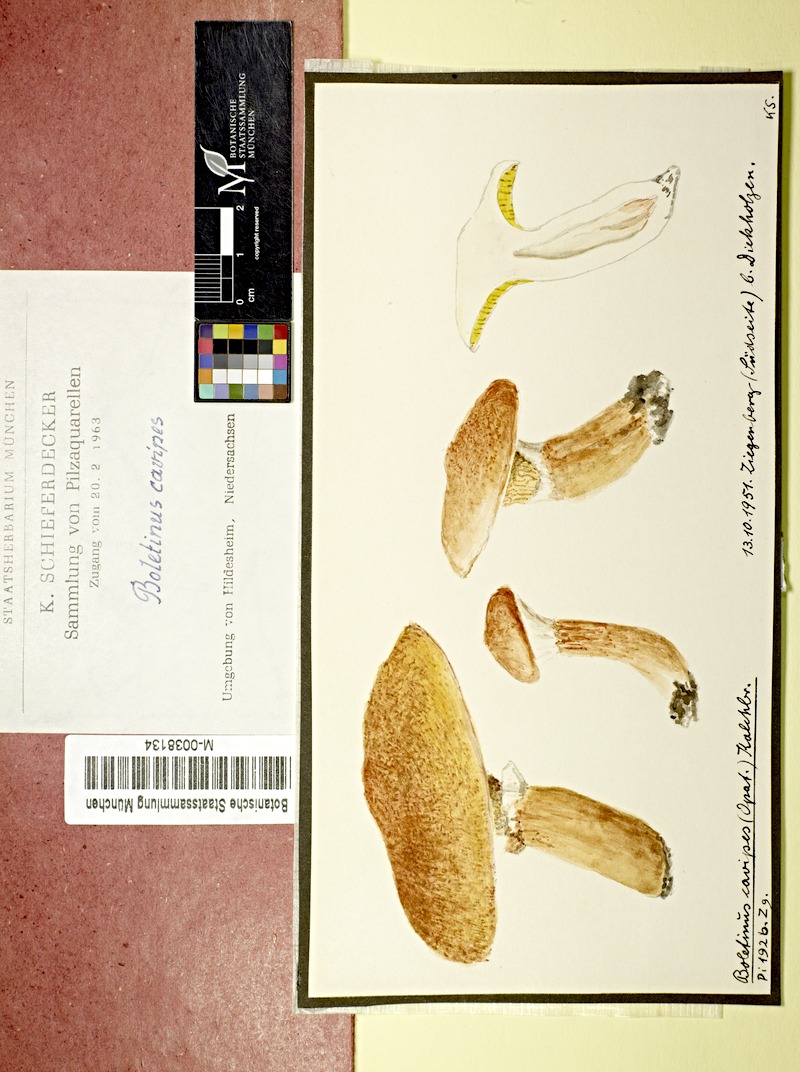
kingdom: Fungi
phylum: Basidiomycota
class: Agaricomycetes
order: Boletales
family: Suillaceae
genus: Suillus
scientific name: Suillus cavipes
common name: Hollow bolete
